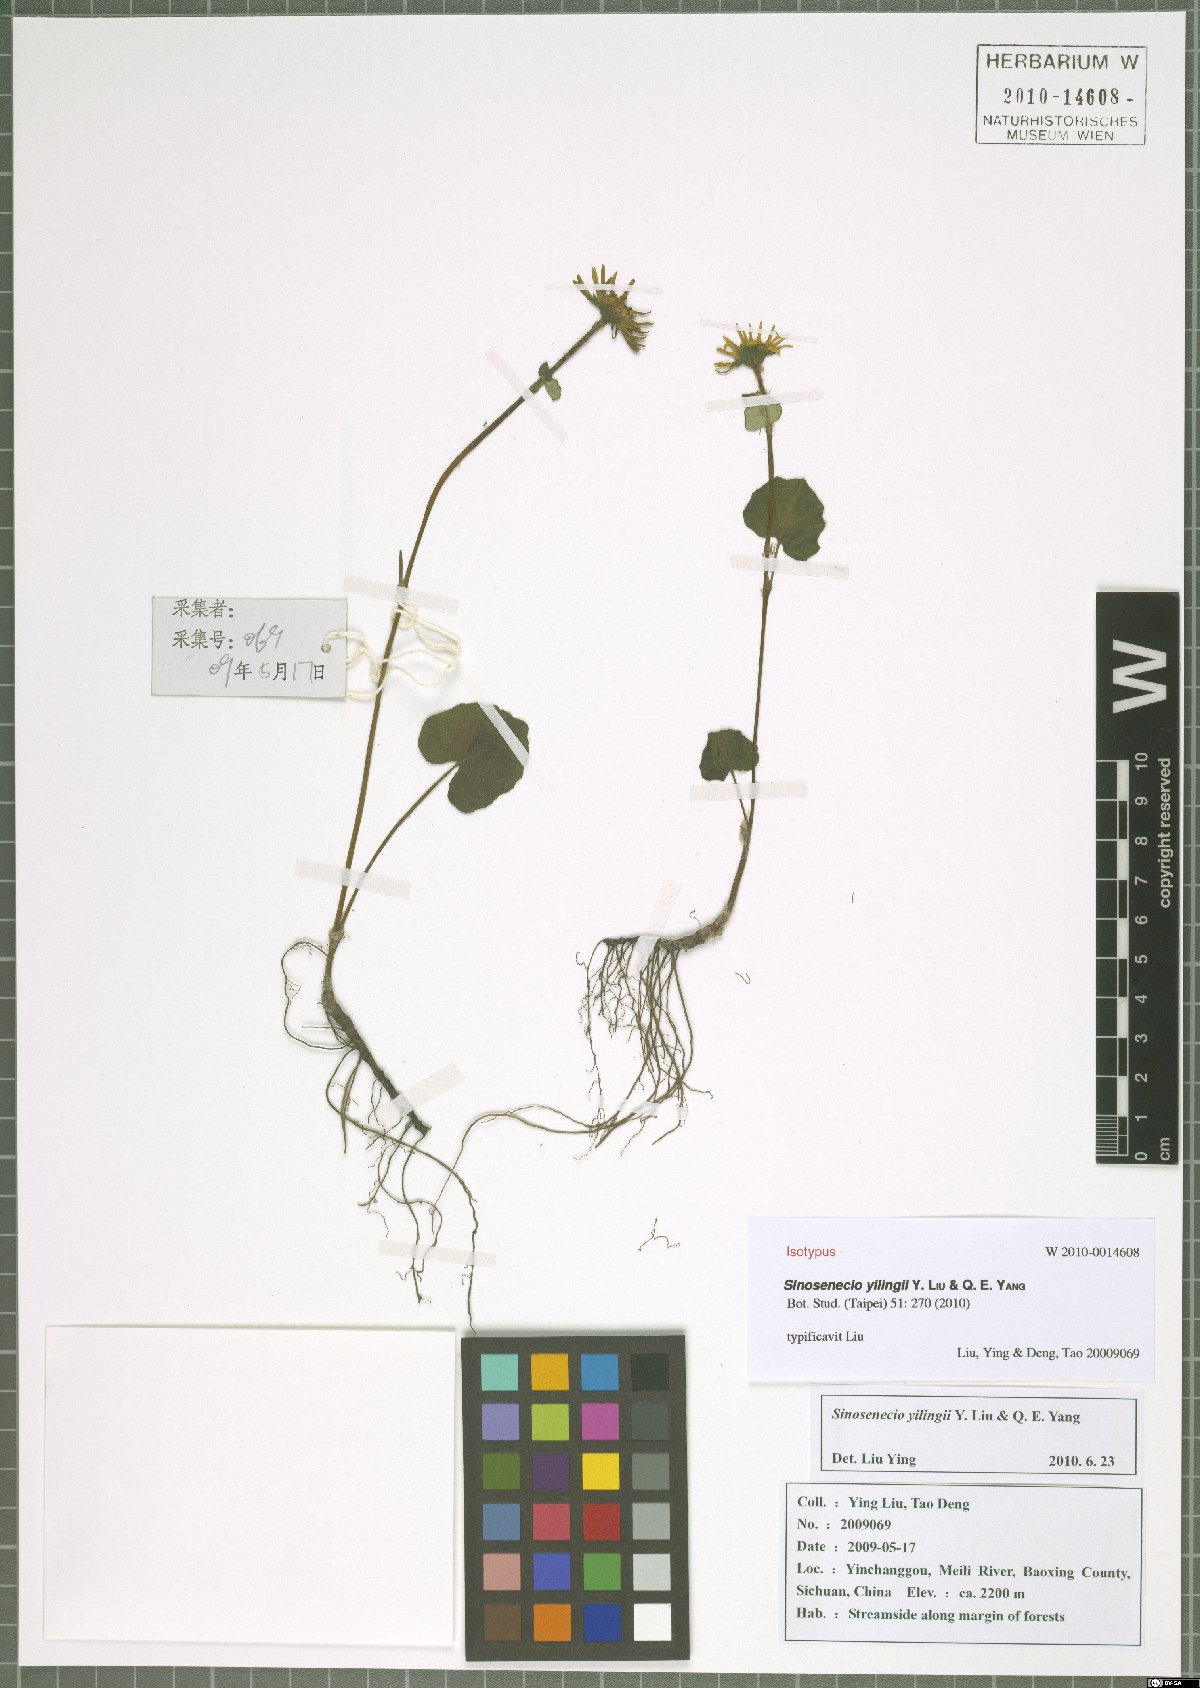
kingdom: Plantae
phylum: Tracheophyta
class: Magnoliopsida
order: Asterales
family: Asteraceae
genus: Sinosenecio
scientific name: Sinosenecio yilingii
